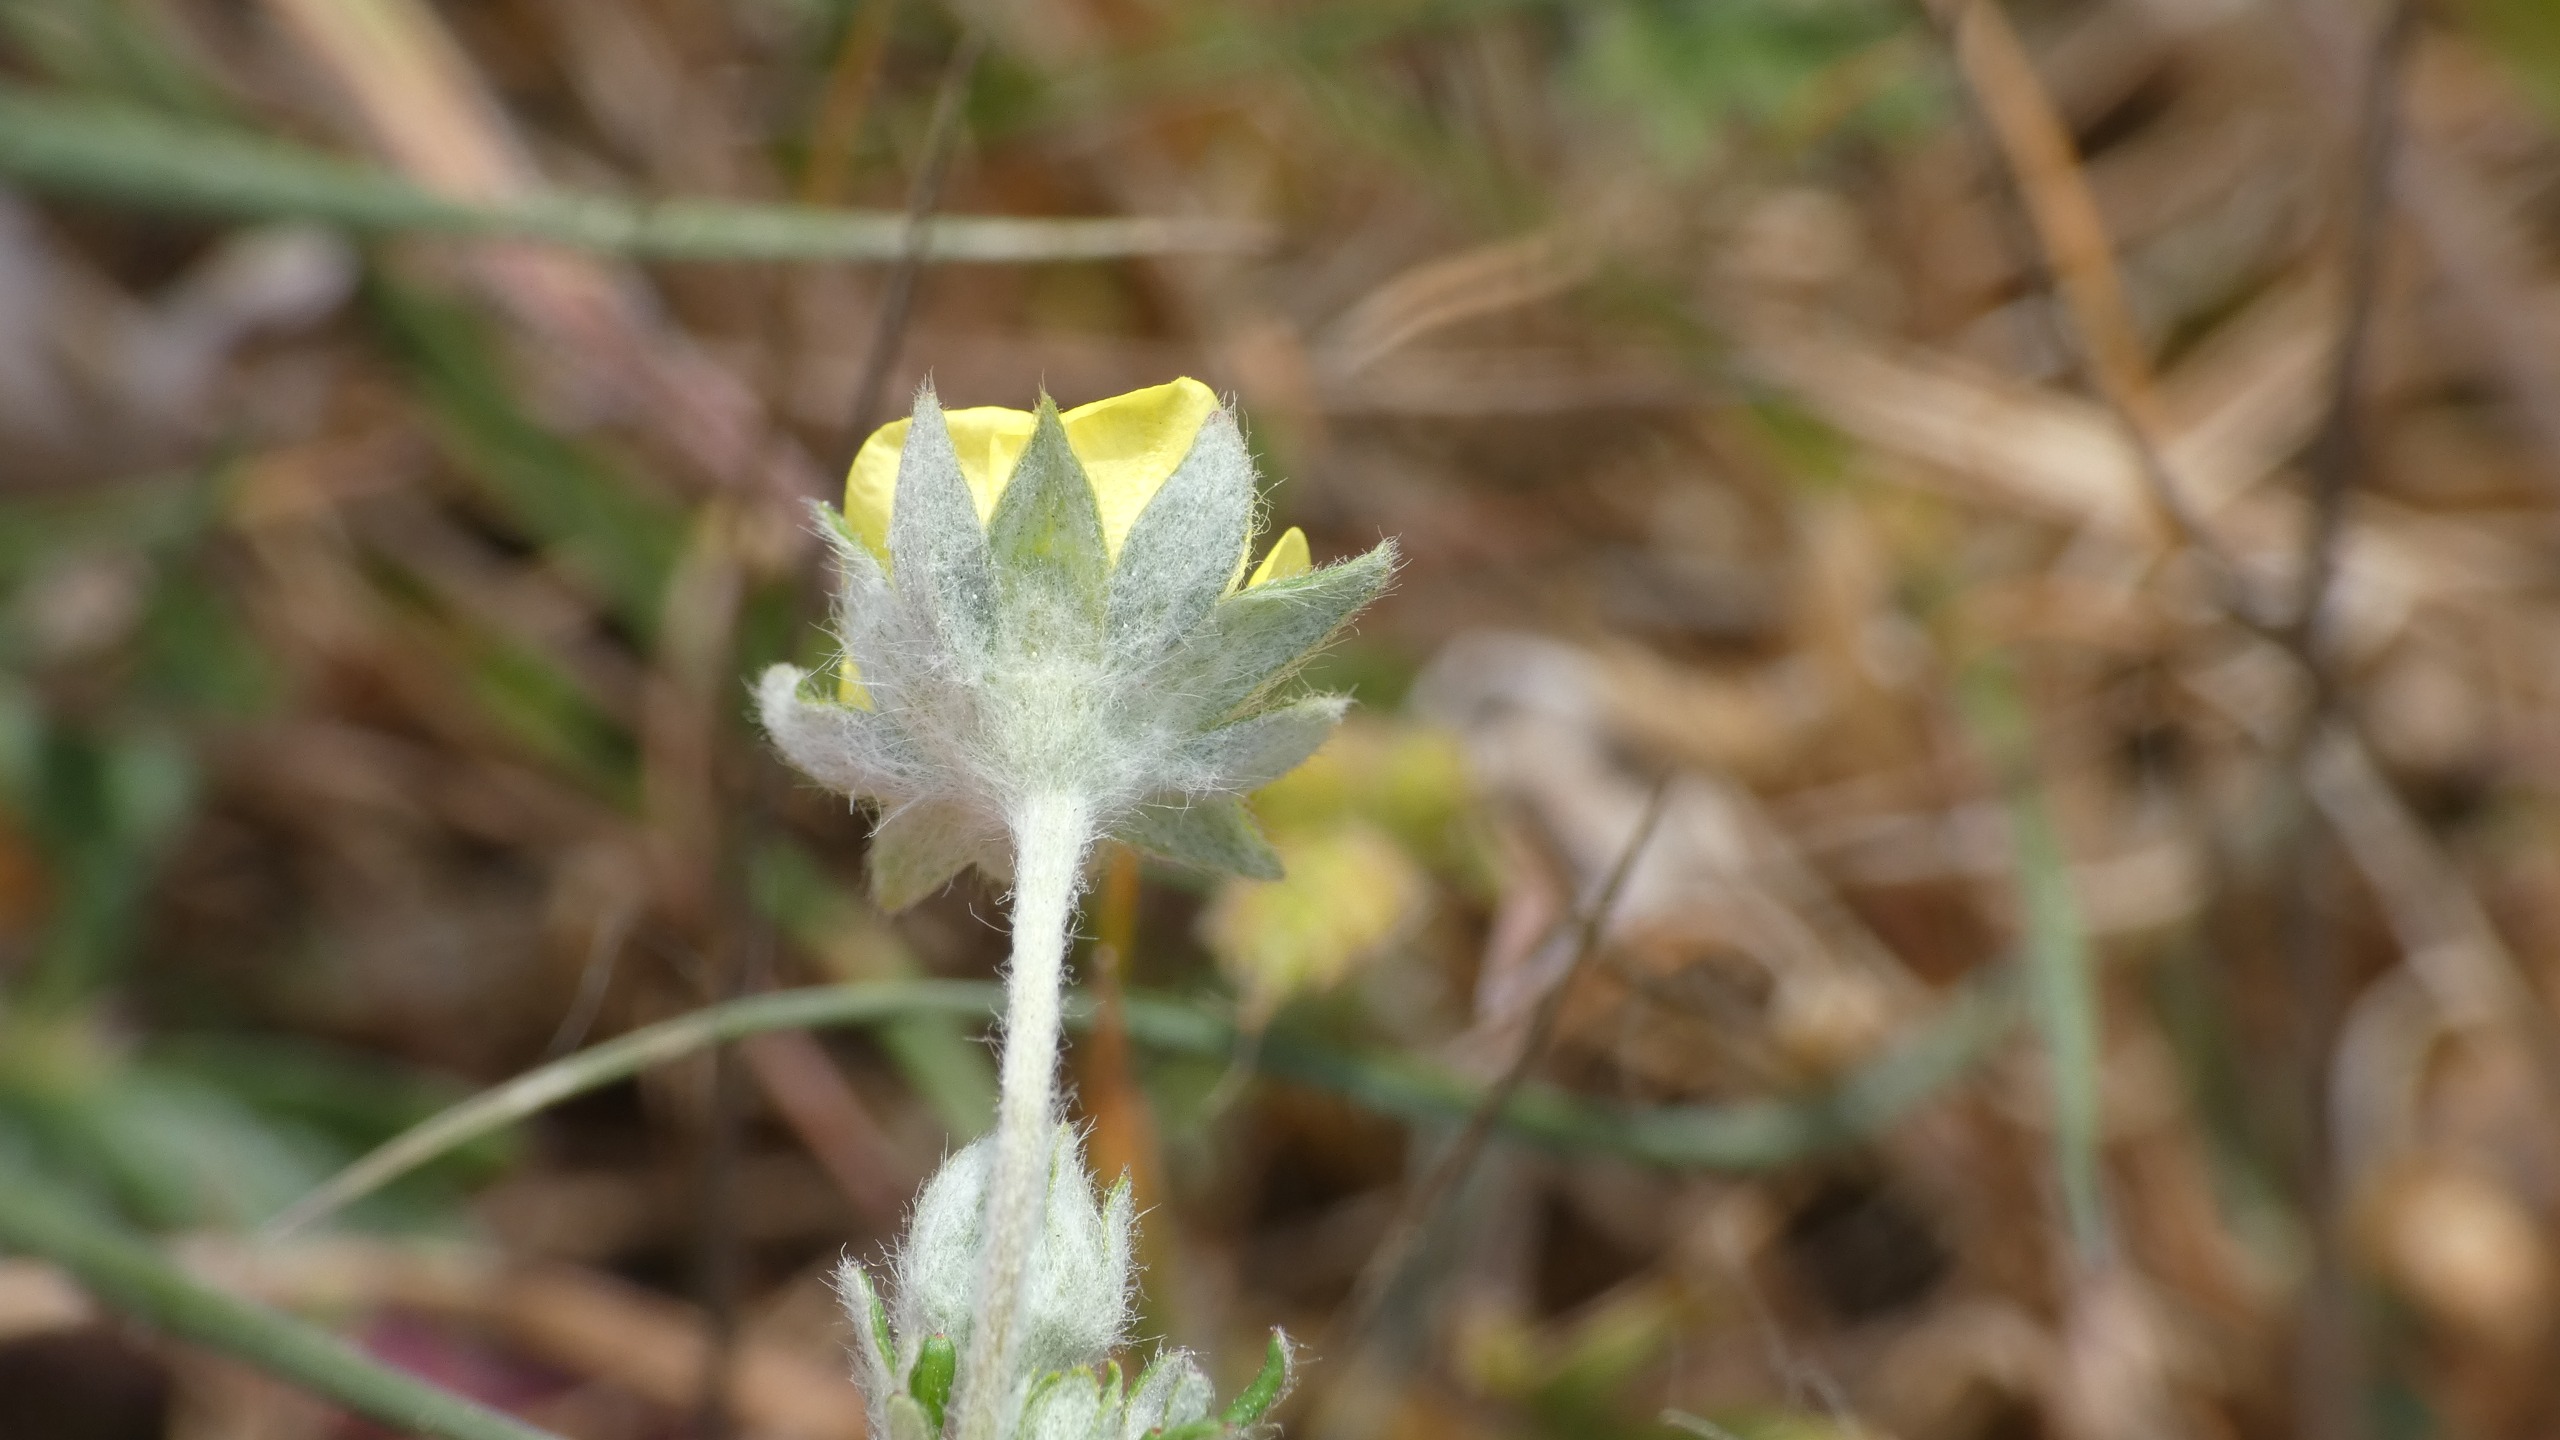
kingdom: Plantae
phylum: Tracheophyta
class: Magnoliopsida
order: Rosales
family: Rosaceae
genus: Potentilla
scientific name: Potentilla argentea
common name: Sølv-potentil
